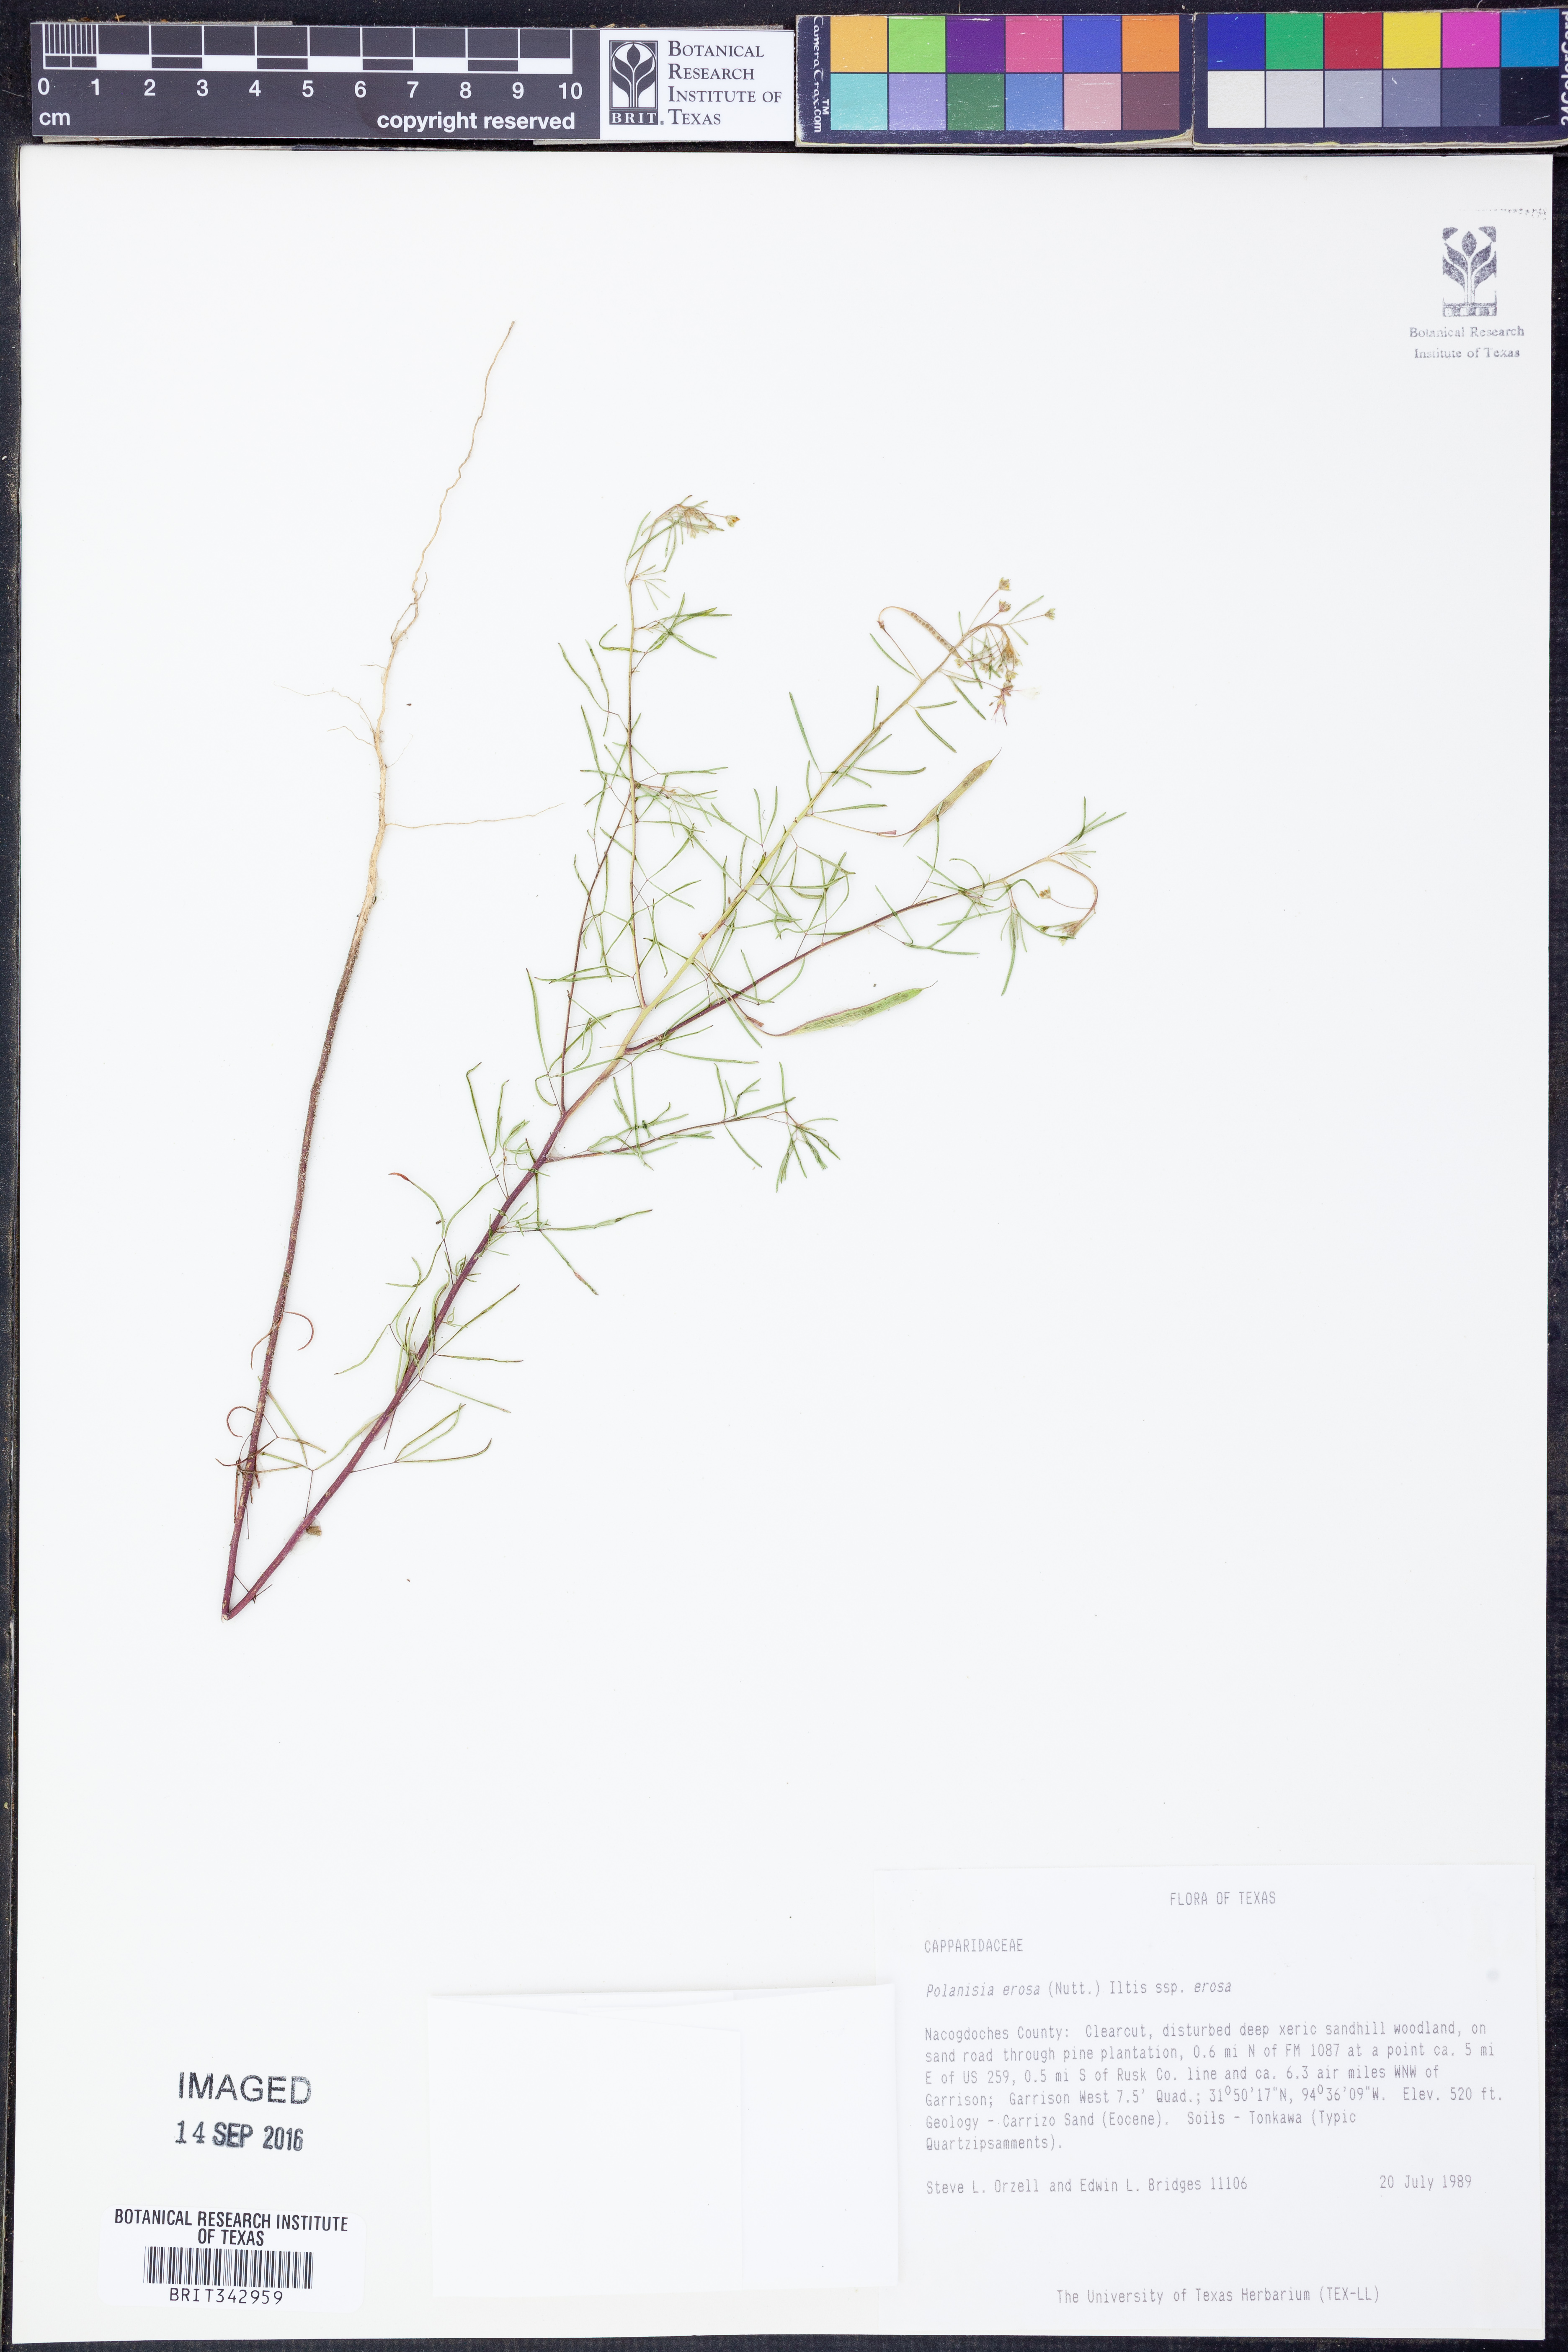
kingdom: Plantae
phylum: Tracheophyta
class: Magnoliopsida
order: Brassicales
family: Cleomaceae
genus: Polanisia
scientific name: Polanisia erosa
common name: Large clammyweed
